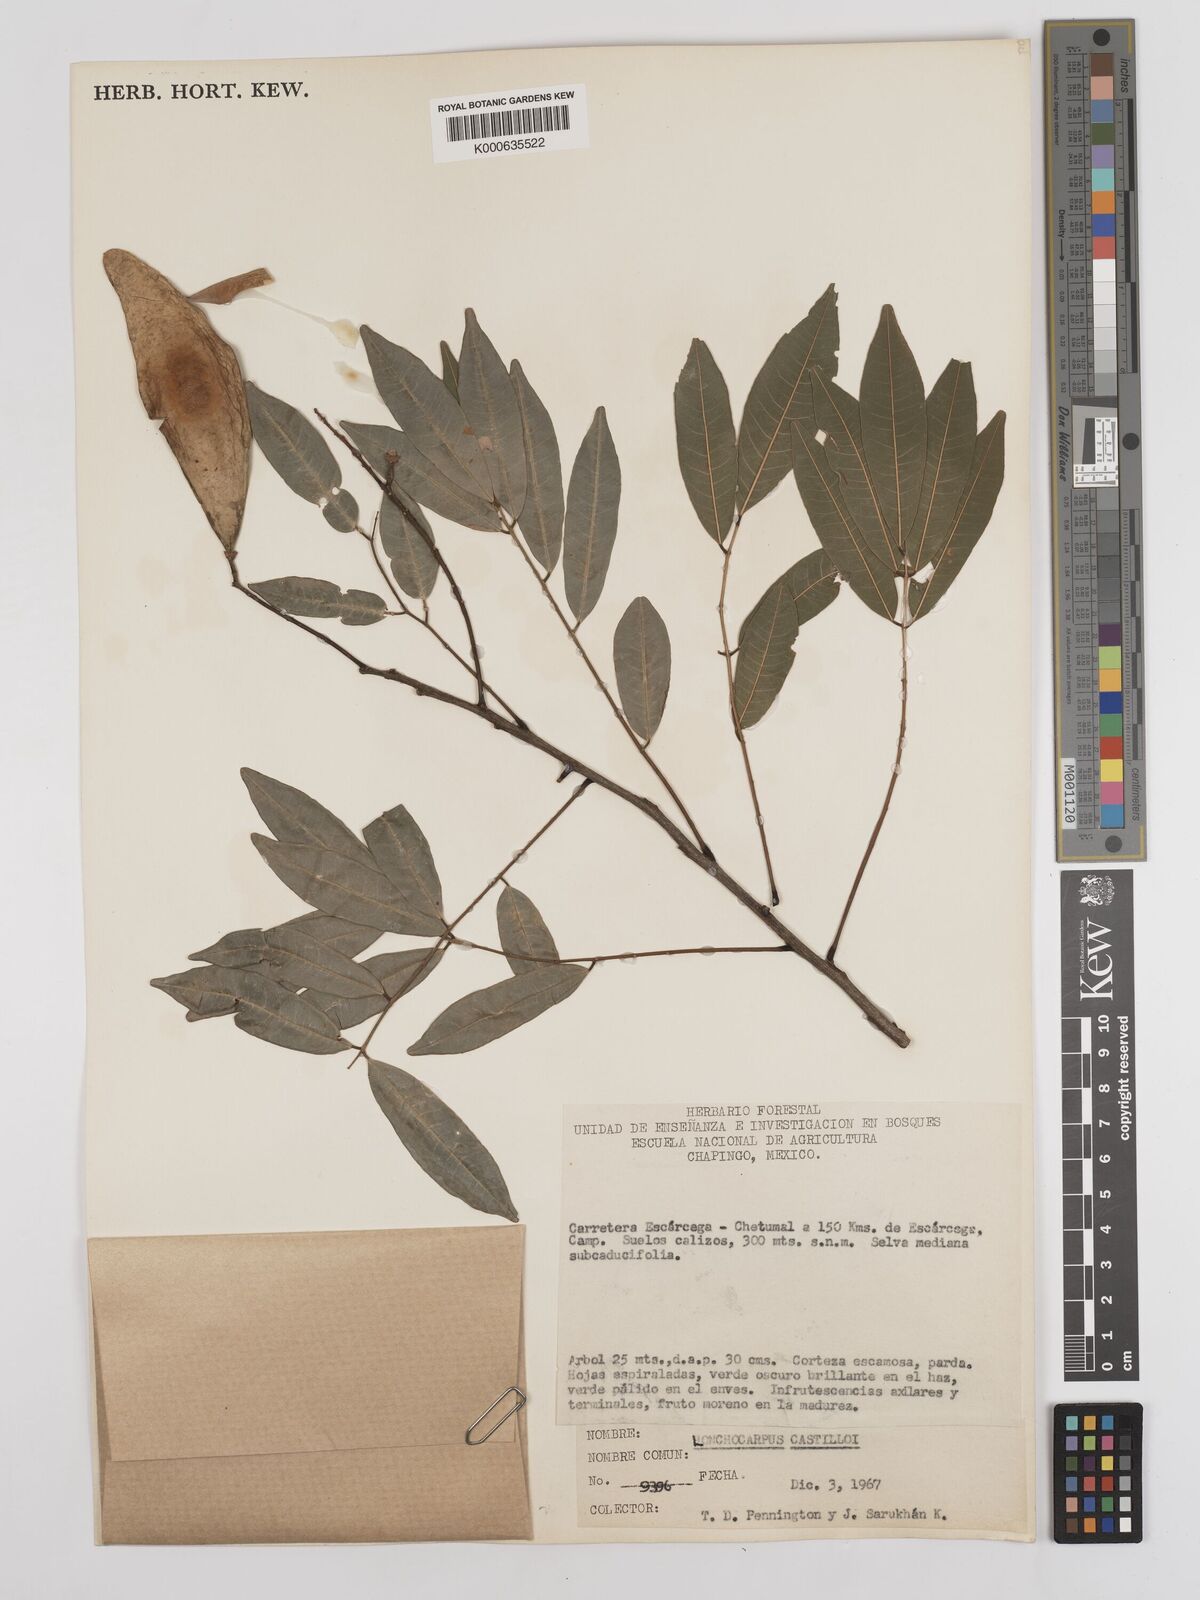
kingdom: Plantae
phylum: Tracheophyta
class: Magnoliopsida
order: Fabales
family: Fabaceae
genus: Lonchocarpus
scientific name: Lonchocarpus castilloi
